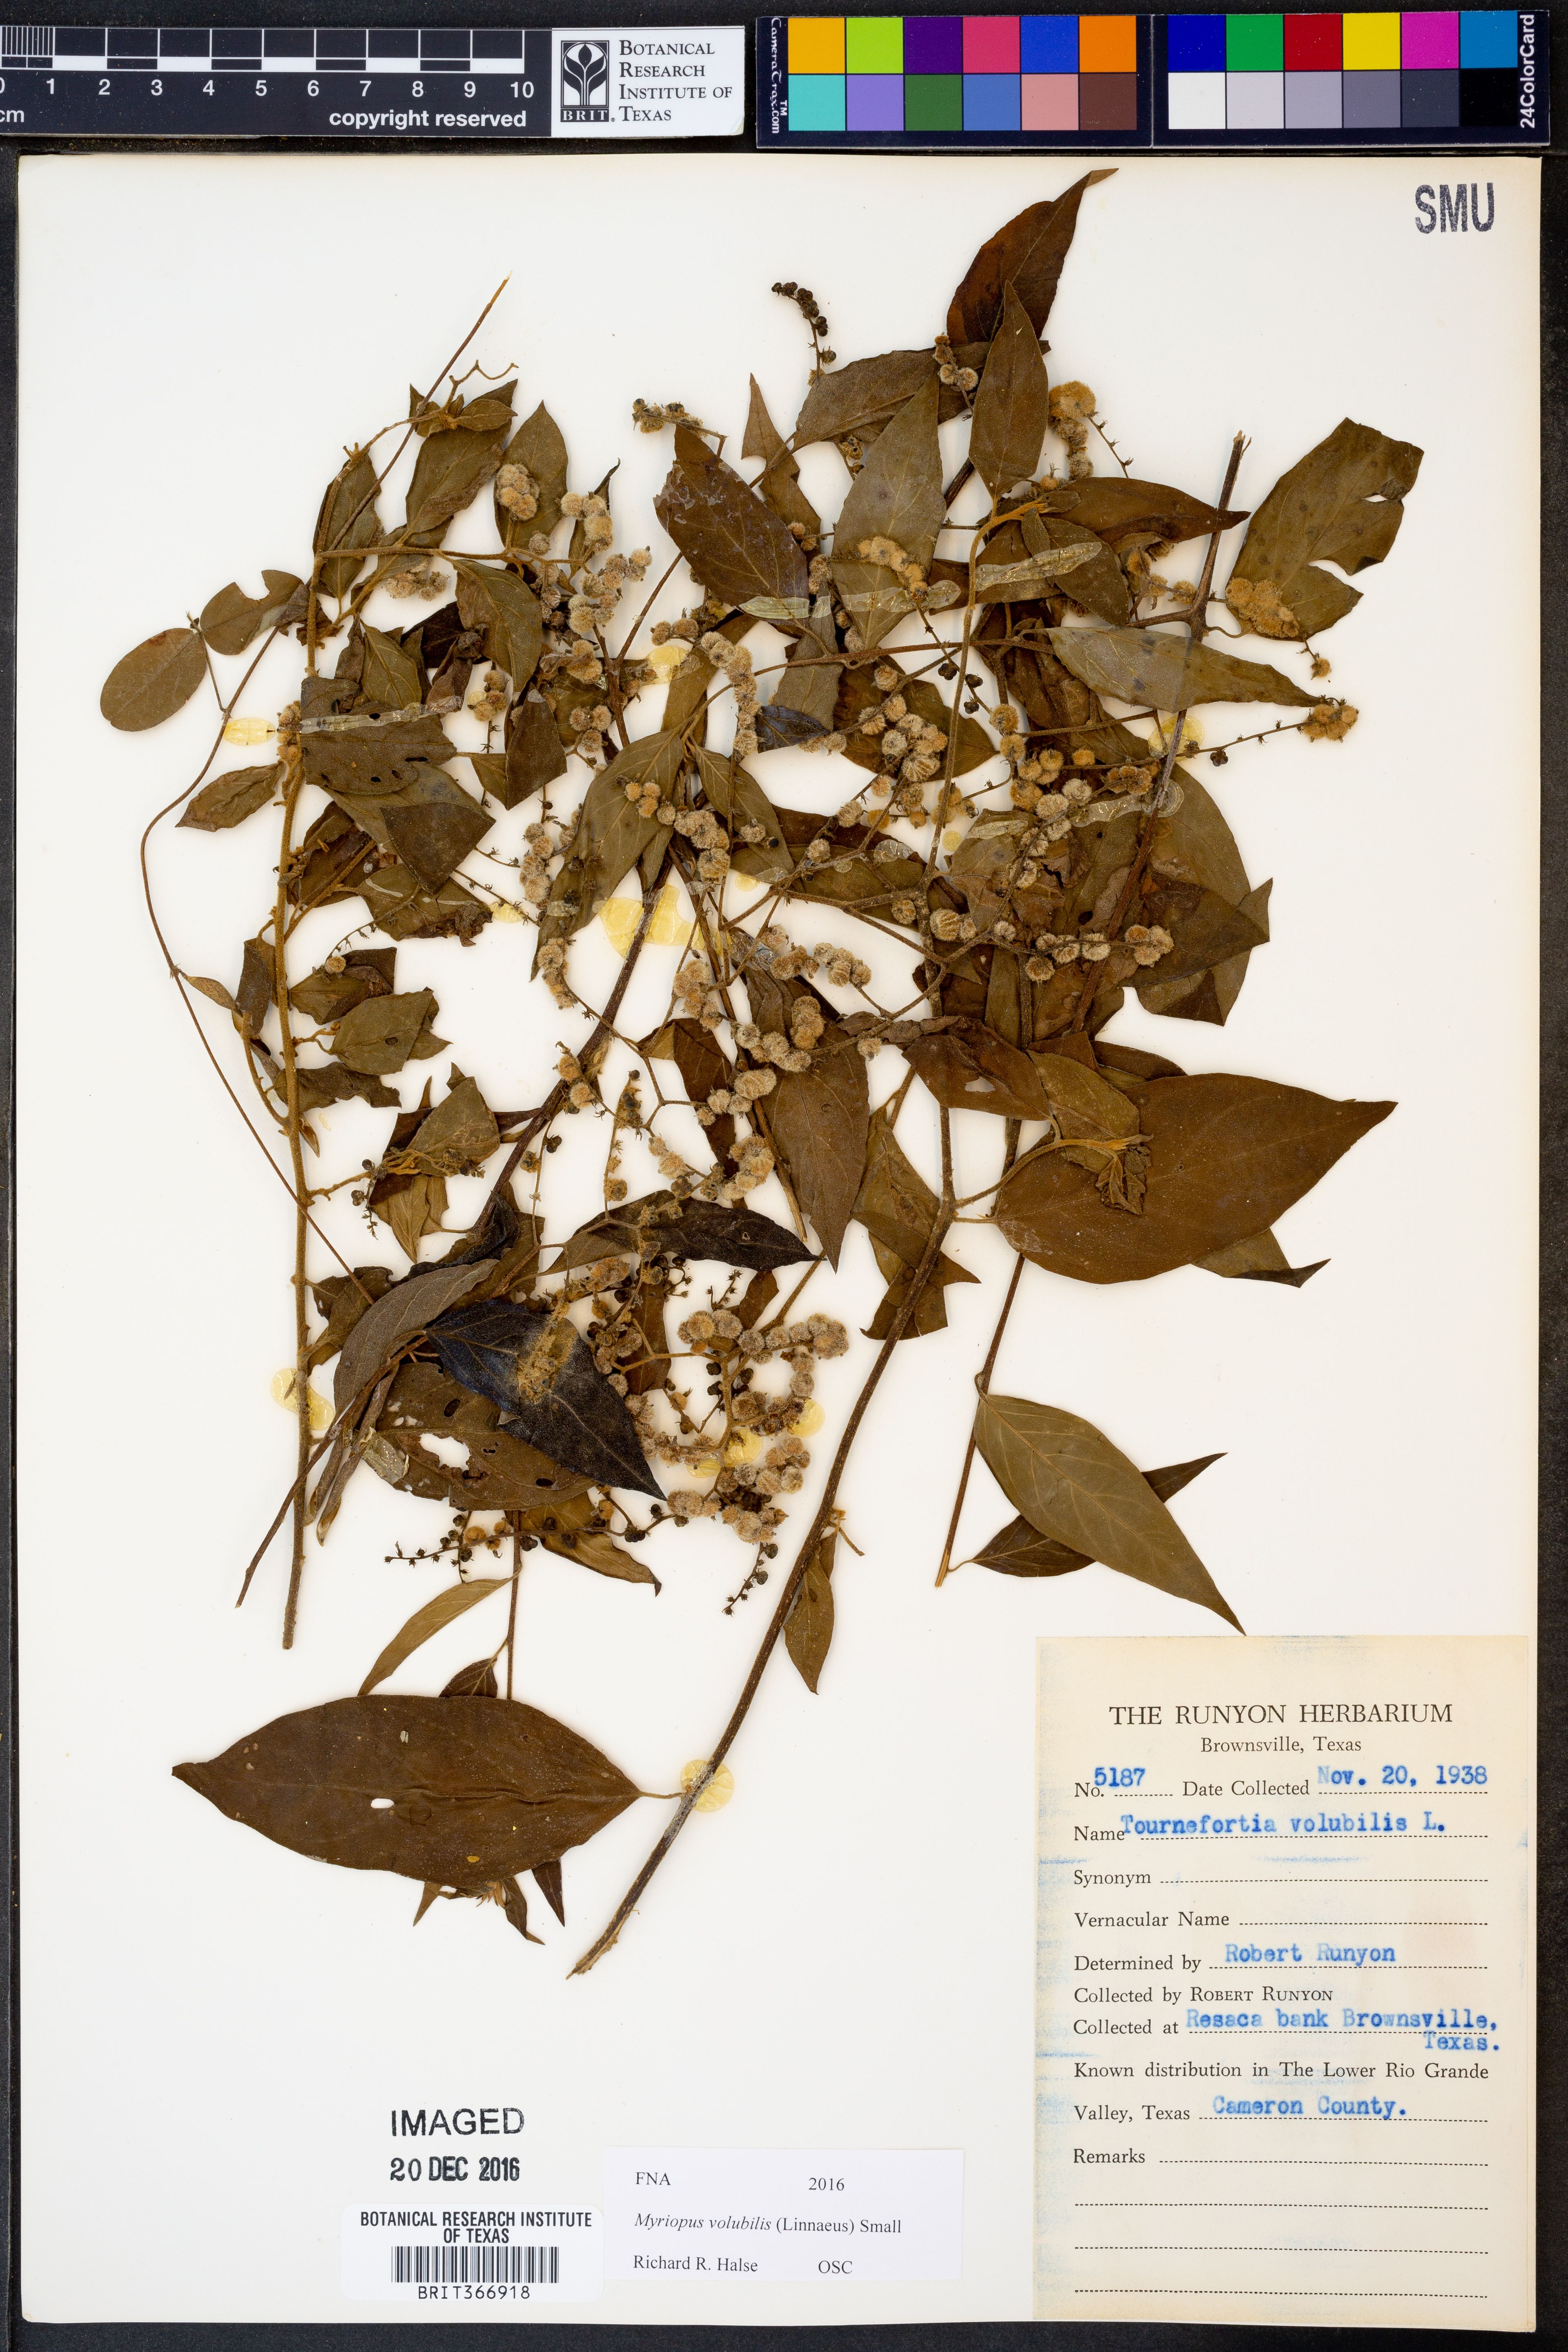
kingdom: Plantae
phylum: Tracheophyta
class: Magnoliopsida
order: Boraginales
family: Heliotropiaceae
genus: Myriopus
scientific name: Myriopus volubilis
